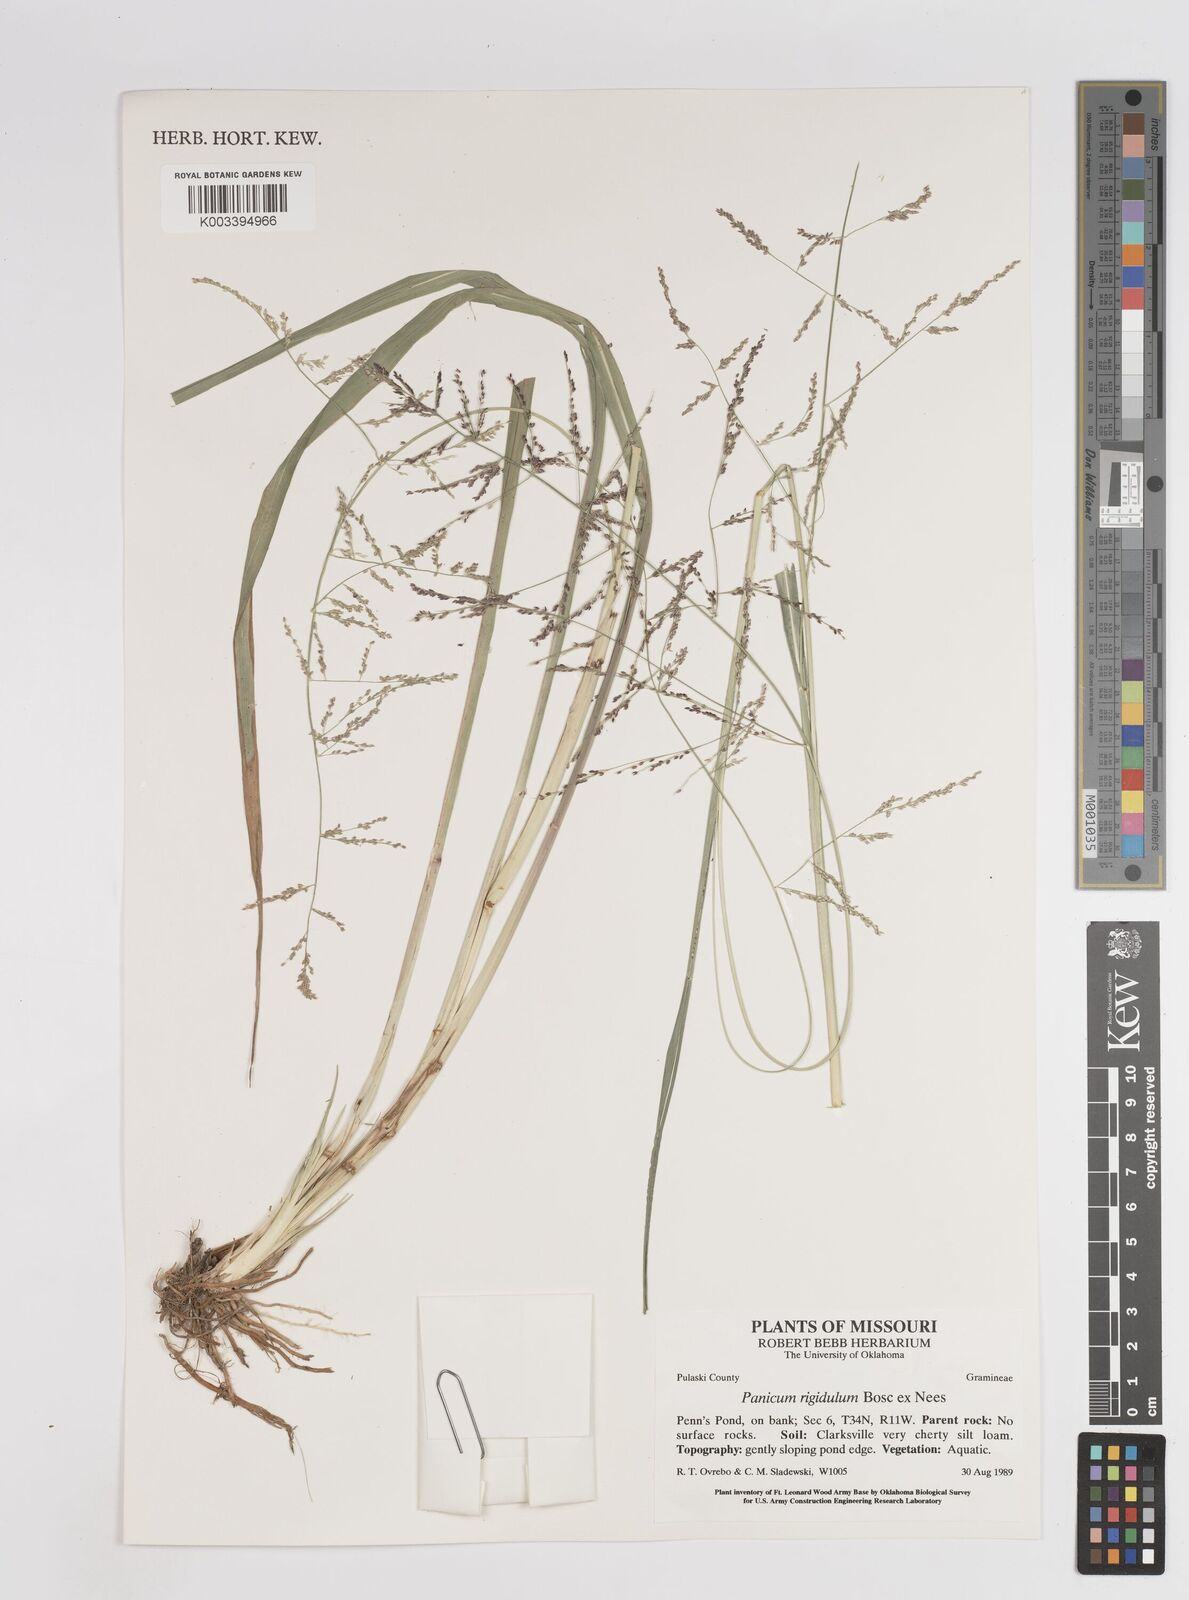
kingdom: Plantae
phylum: Tracheophyta
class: Liliopsida
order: Poales
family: Poaceae
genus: Steinchisma
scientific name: Steinchisma laxum
